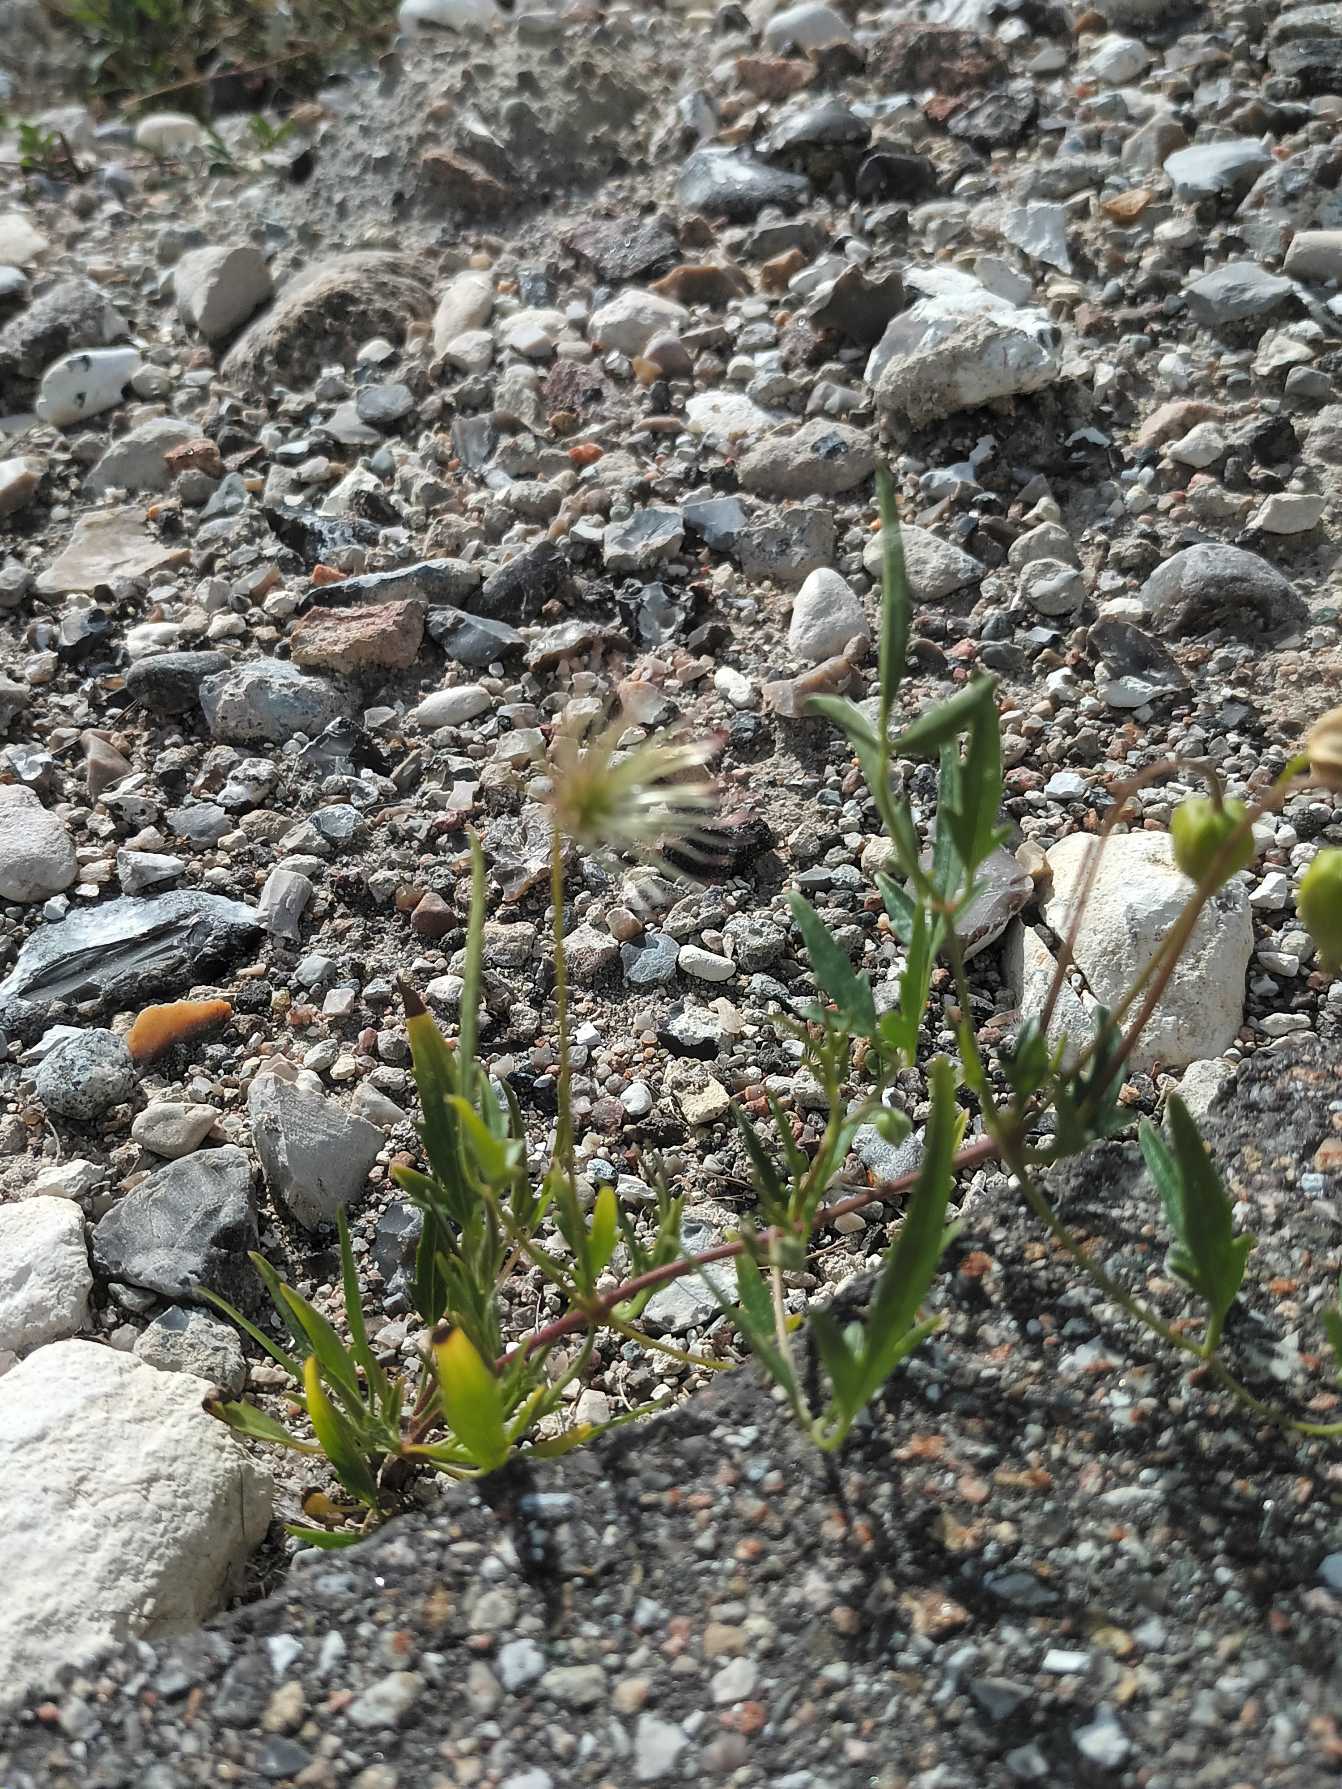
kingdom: Plantae
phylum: Tracheophyta
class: Magnoliopsida
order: Ranunculales
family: Ranunculaceae
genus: Clematis
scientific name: Clematis tangutica
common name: Gul skovranke
